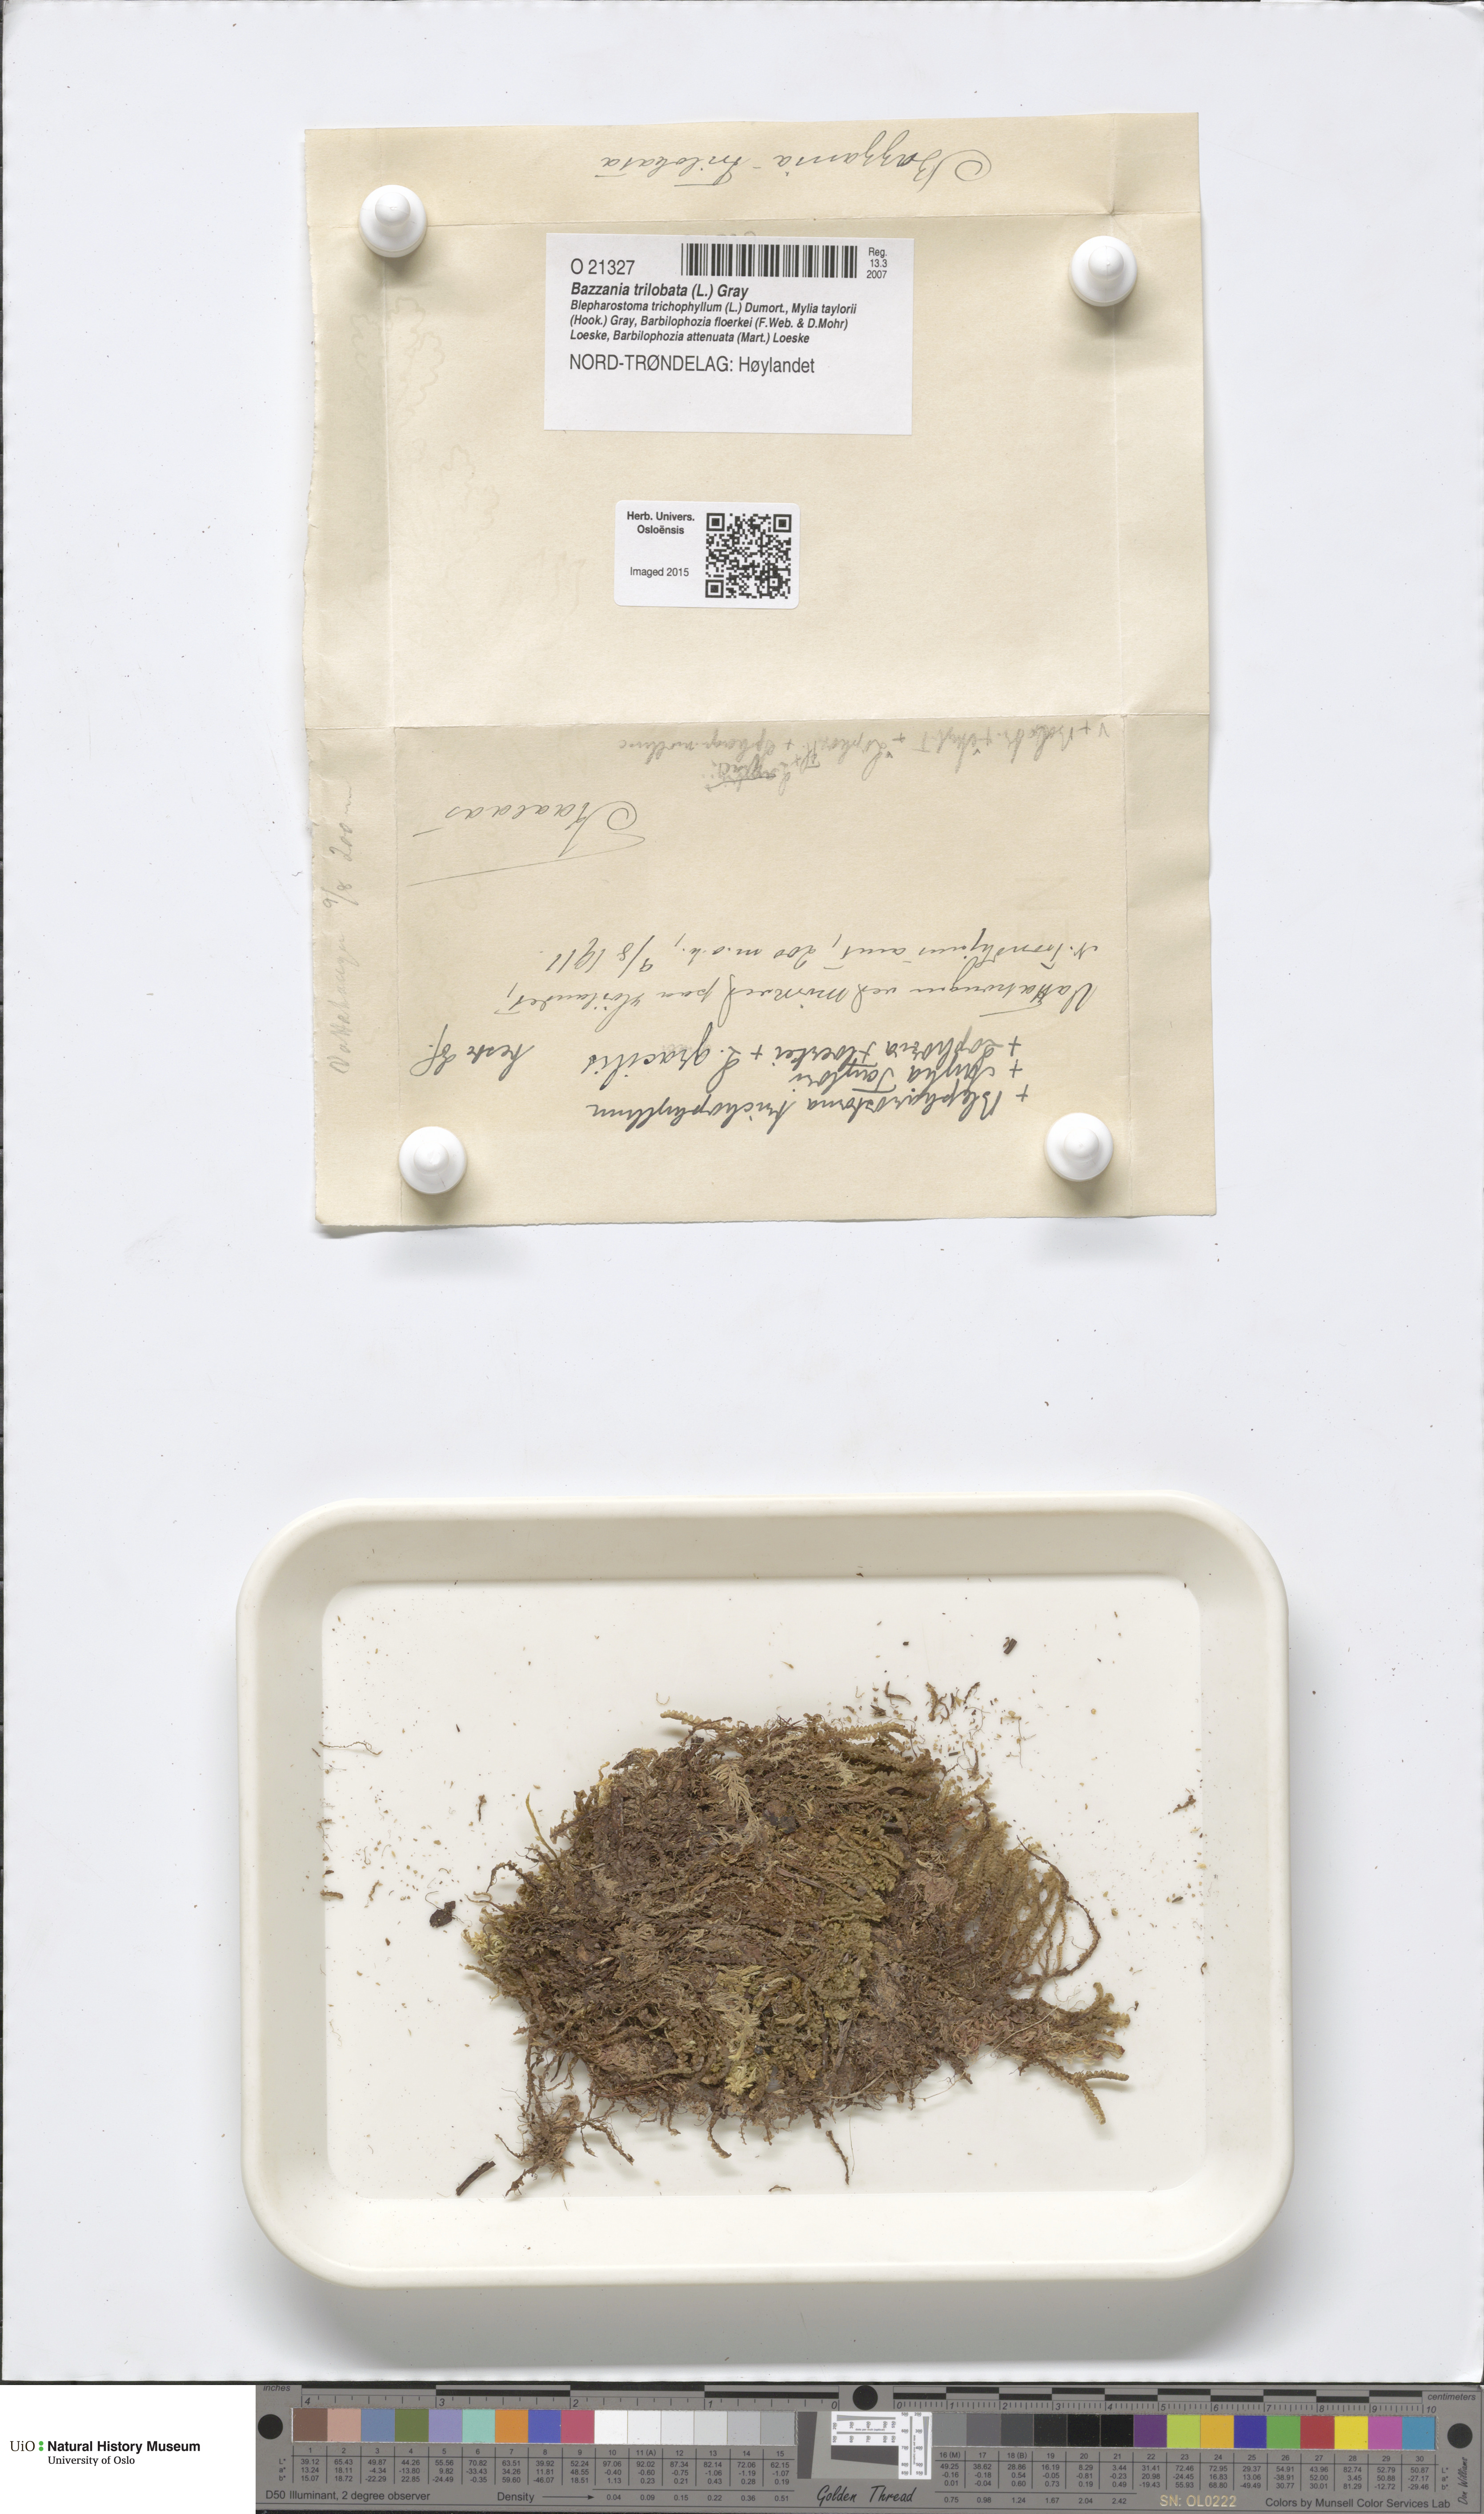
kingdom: Plantae
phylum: Marchantiophyta
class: Jungermanniopsida
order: Jungermanniales
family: Lepidoziaceae
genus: Bazzania
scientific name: Bazzania trilobata
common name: Three-lobed whipwort
